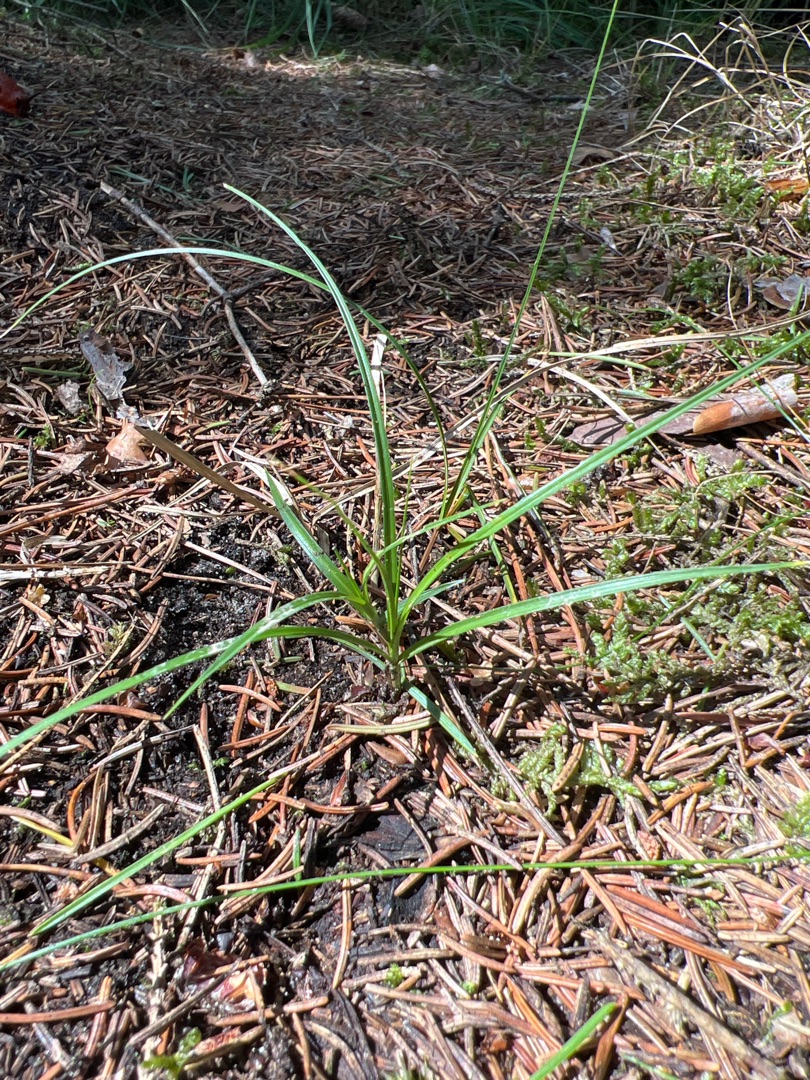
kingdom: Plantae
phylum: Tracheophyta
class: Liliopsida
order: Poales
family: Cyperaceae
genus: Carex
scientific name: Carex arenaria
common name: Sand-star
